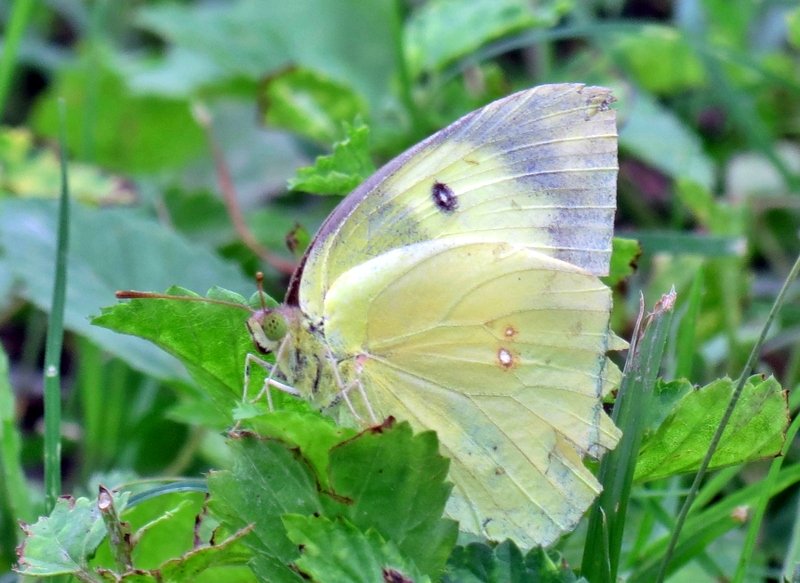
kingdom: Animalia
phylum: Arthropoda
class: Insecta
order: Lepidoptera
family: Pieridae
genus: Zerene
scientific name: Zerene cesonia
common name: Southern Dogface
